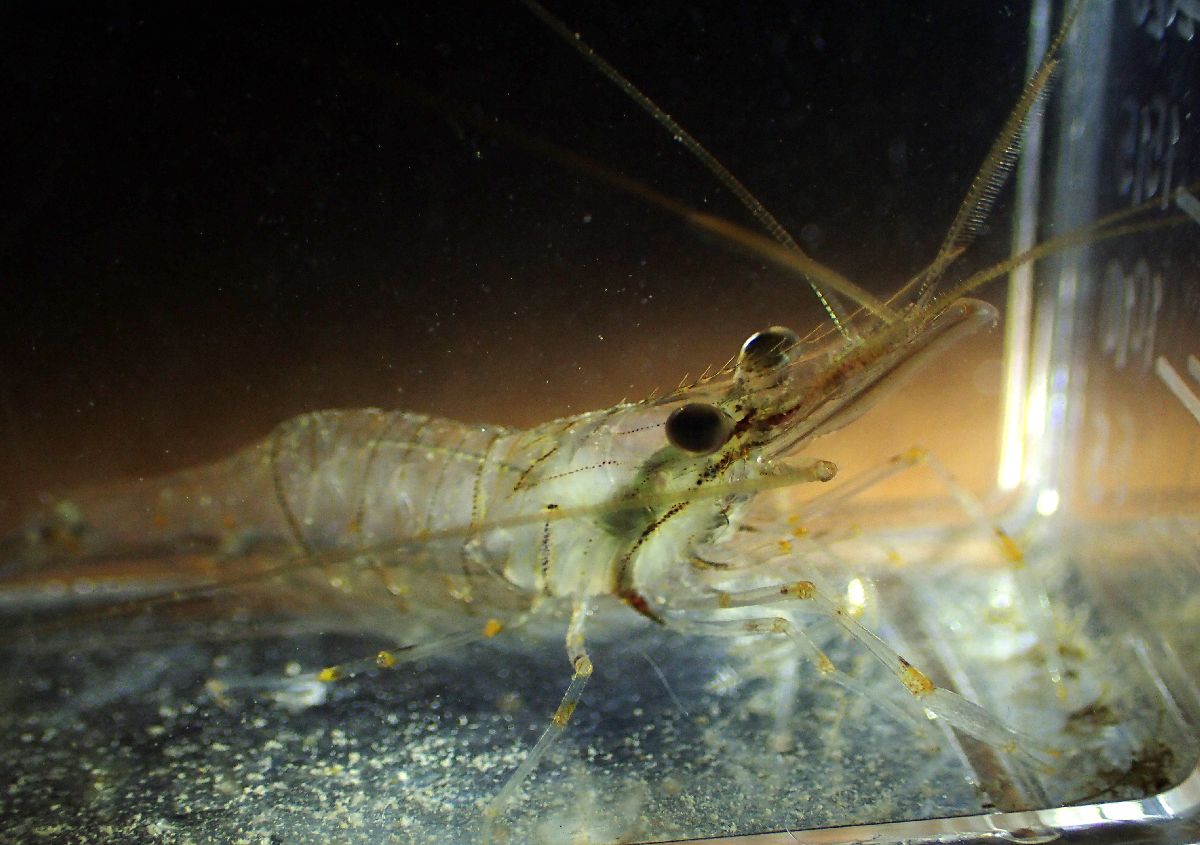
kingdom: Animalia
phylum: Arthropoda
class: Malacostraca
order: Decapoda
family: Palaemonidae
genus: Palaemon
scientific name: Palaemon elegans
